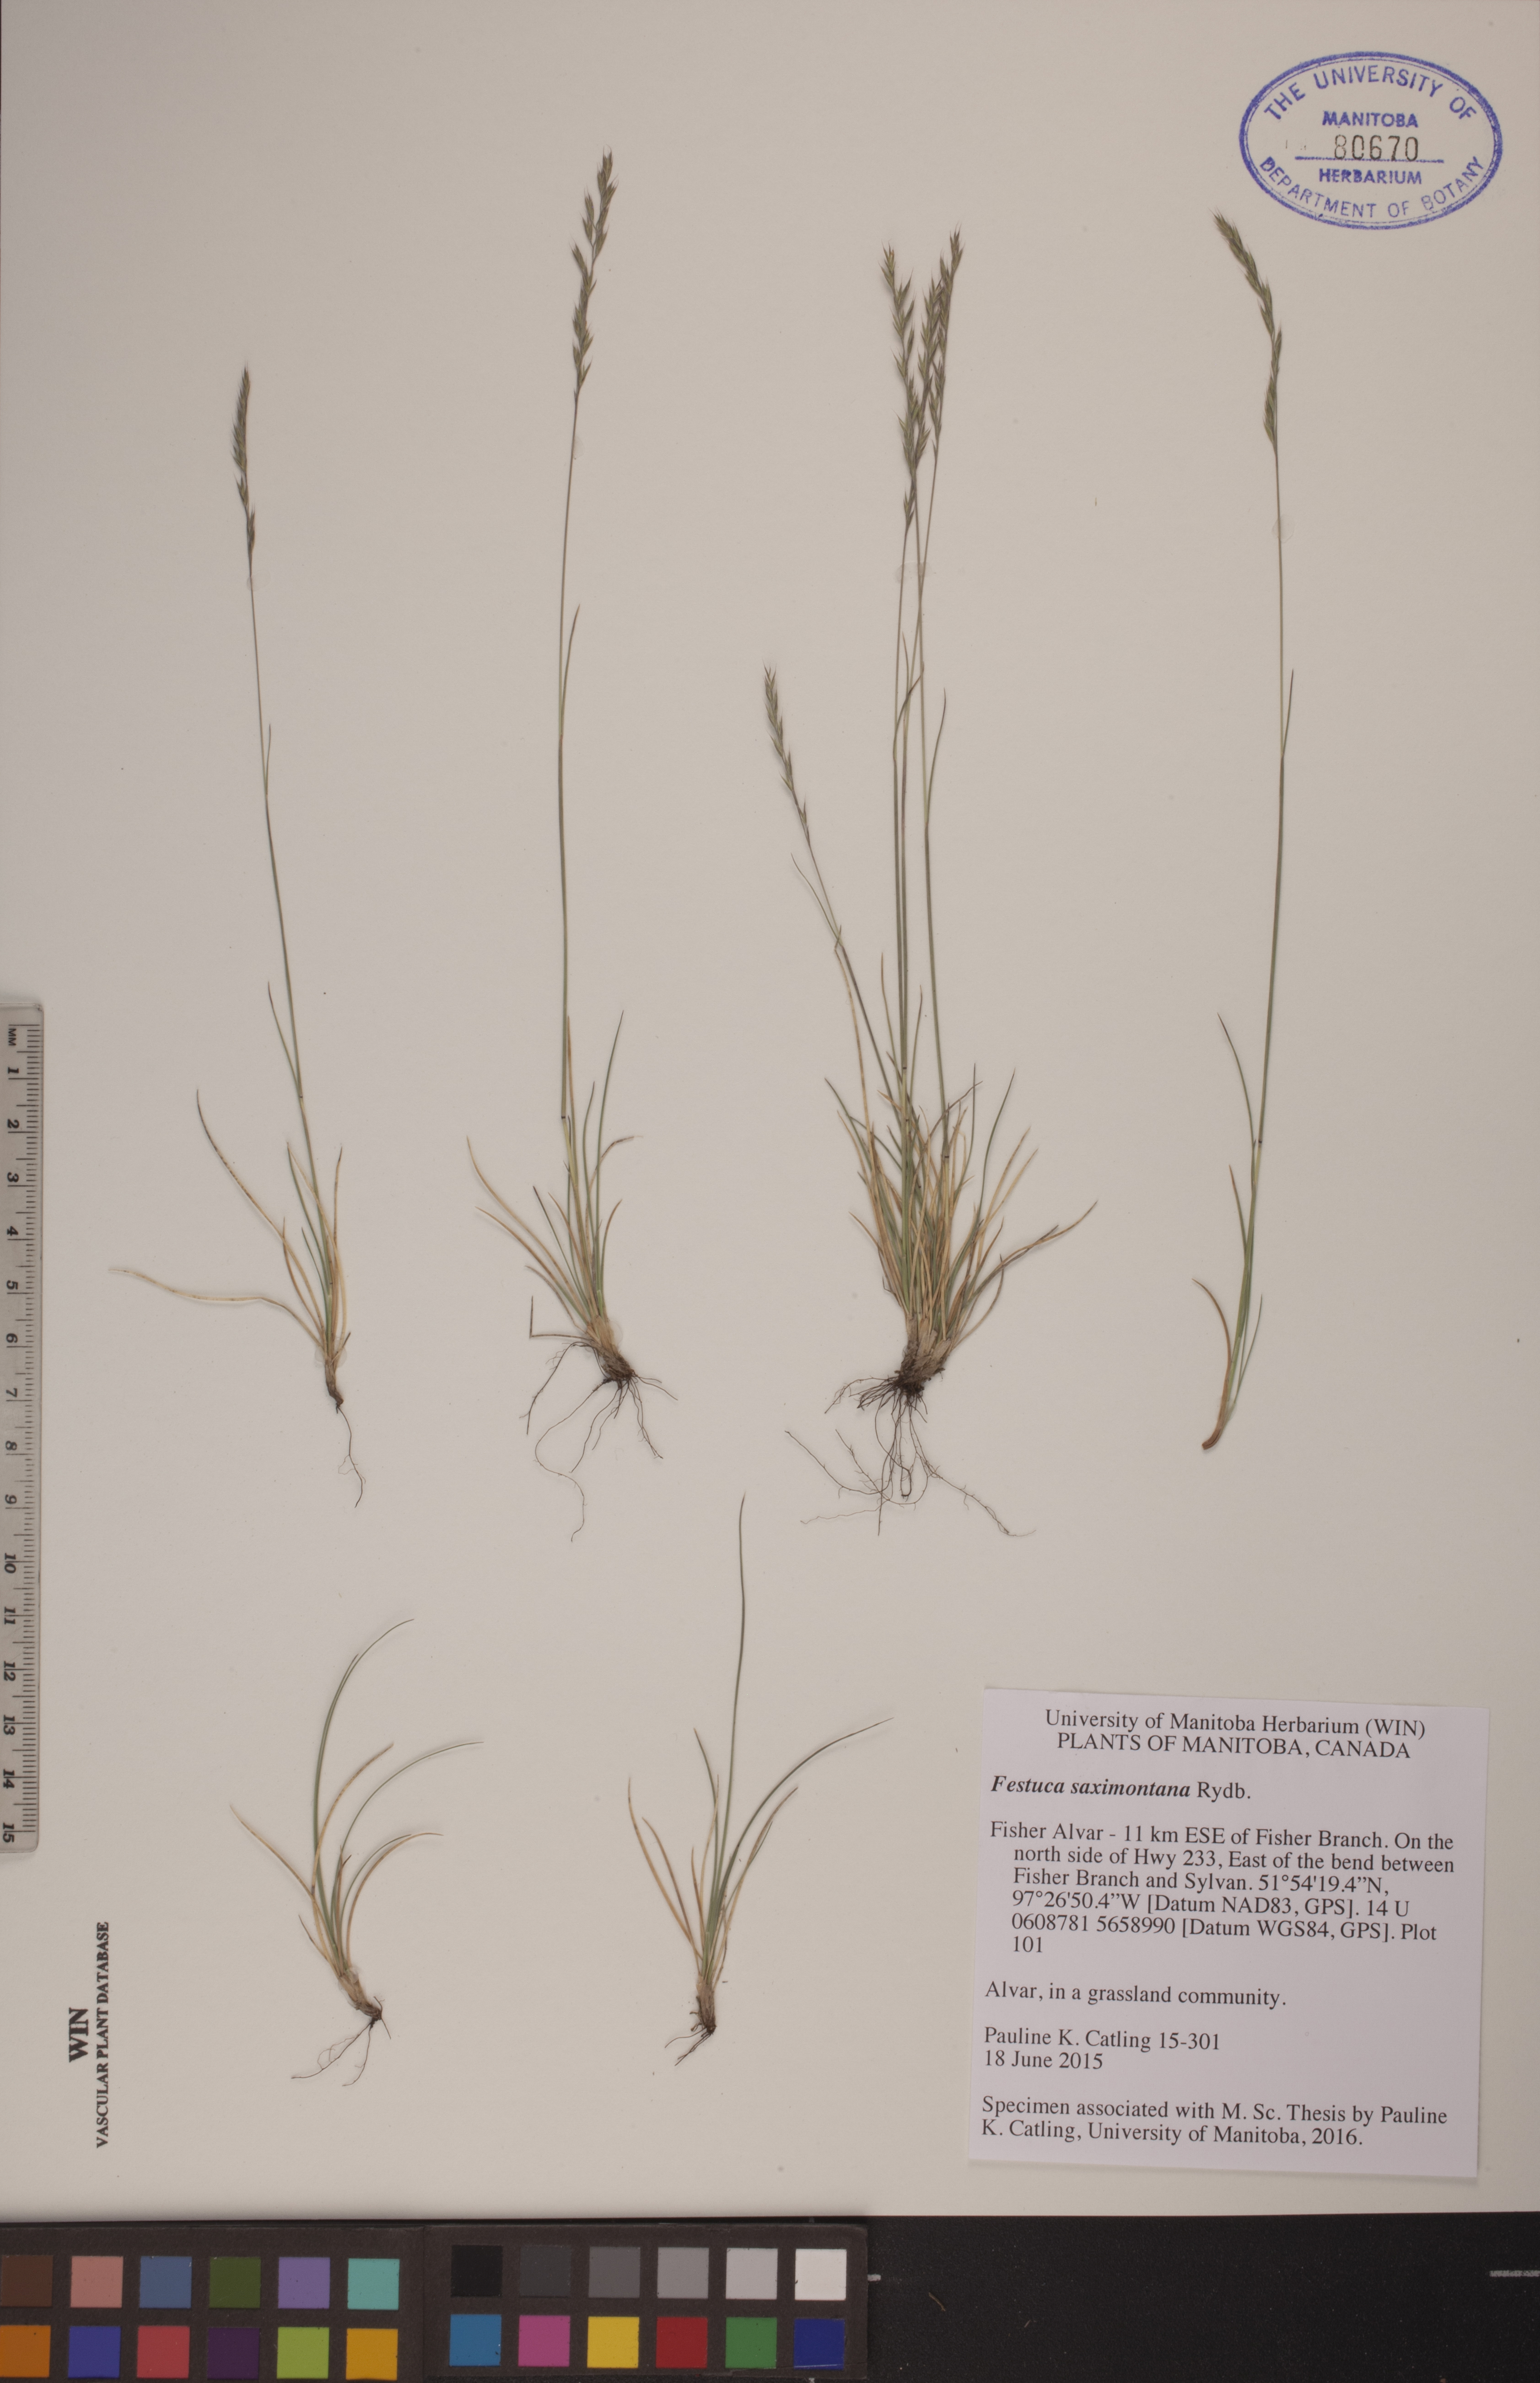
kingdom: Plantae
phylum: Tracheophyta
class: Liliopsida
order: Poales
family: Poaceae
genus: Festuca
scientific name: Festuca saximontana
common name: Mountain fescue
